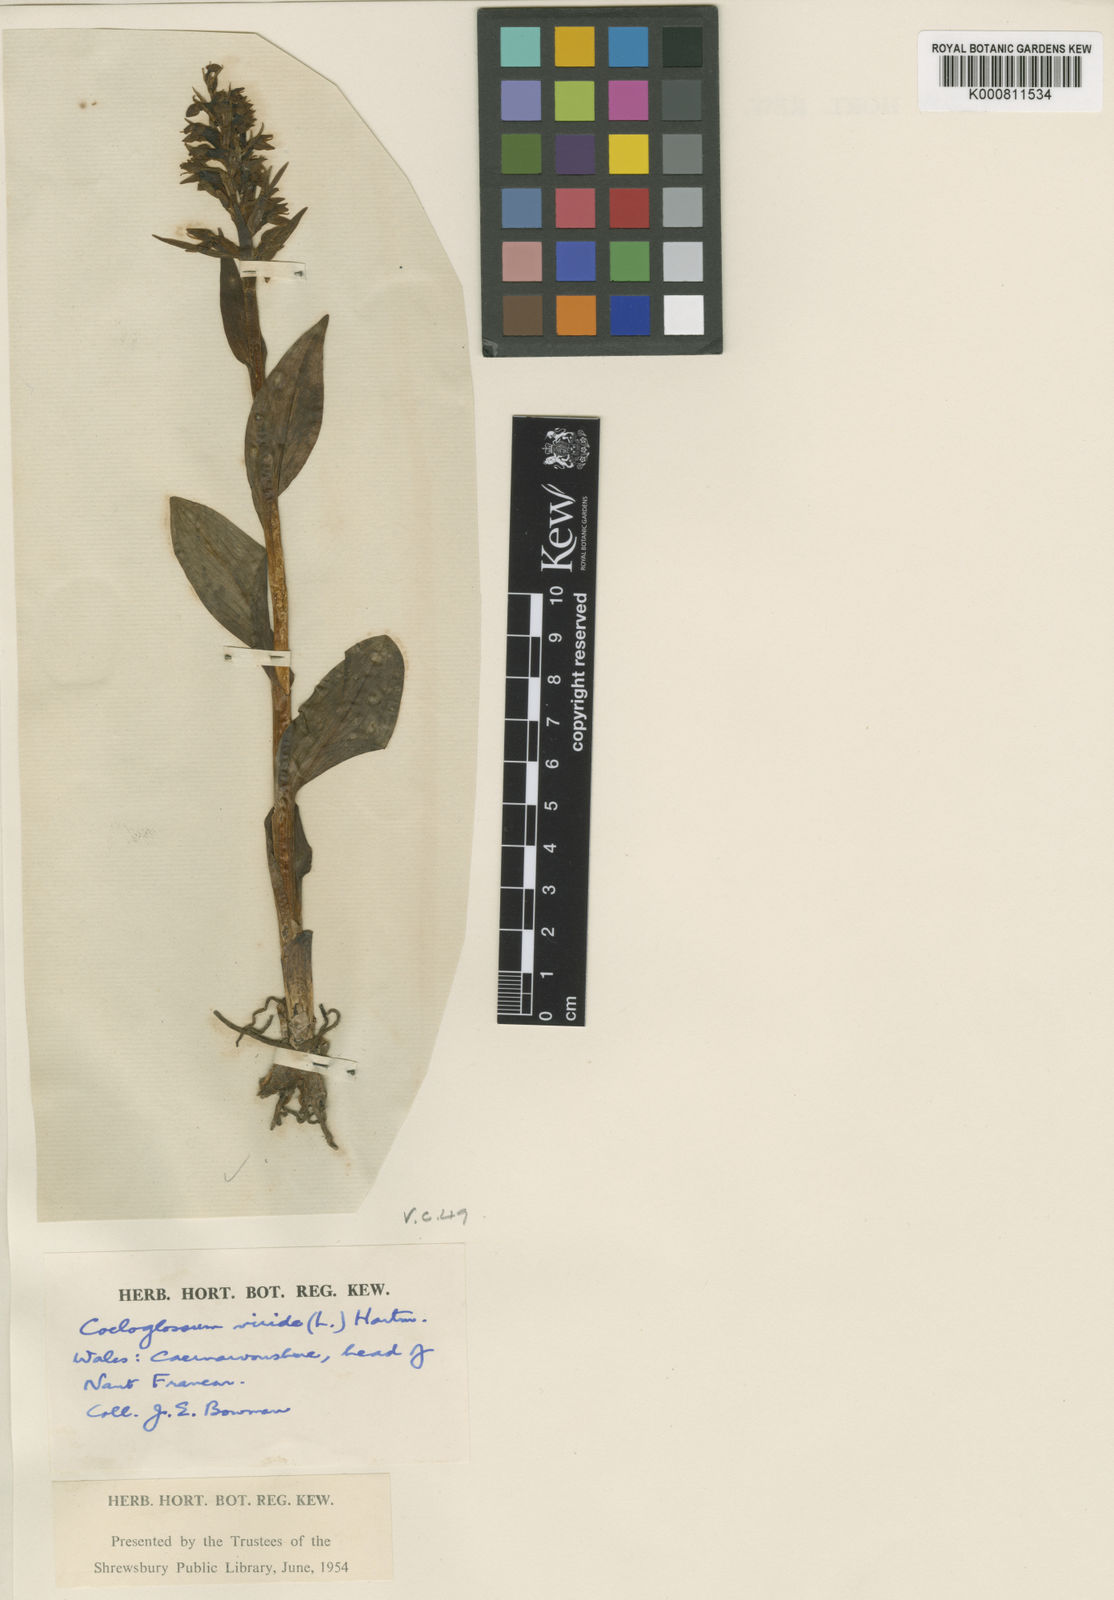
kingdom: Plantae
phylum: Tracheophyta
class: Liliopsida
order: Asparagales
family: Orchidaceae
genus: Dactylorhiza
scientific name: Dactylorhiza viridis
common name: Longbract frog orchid
